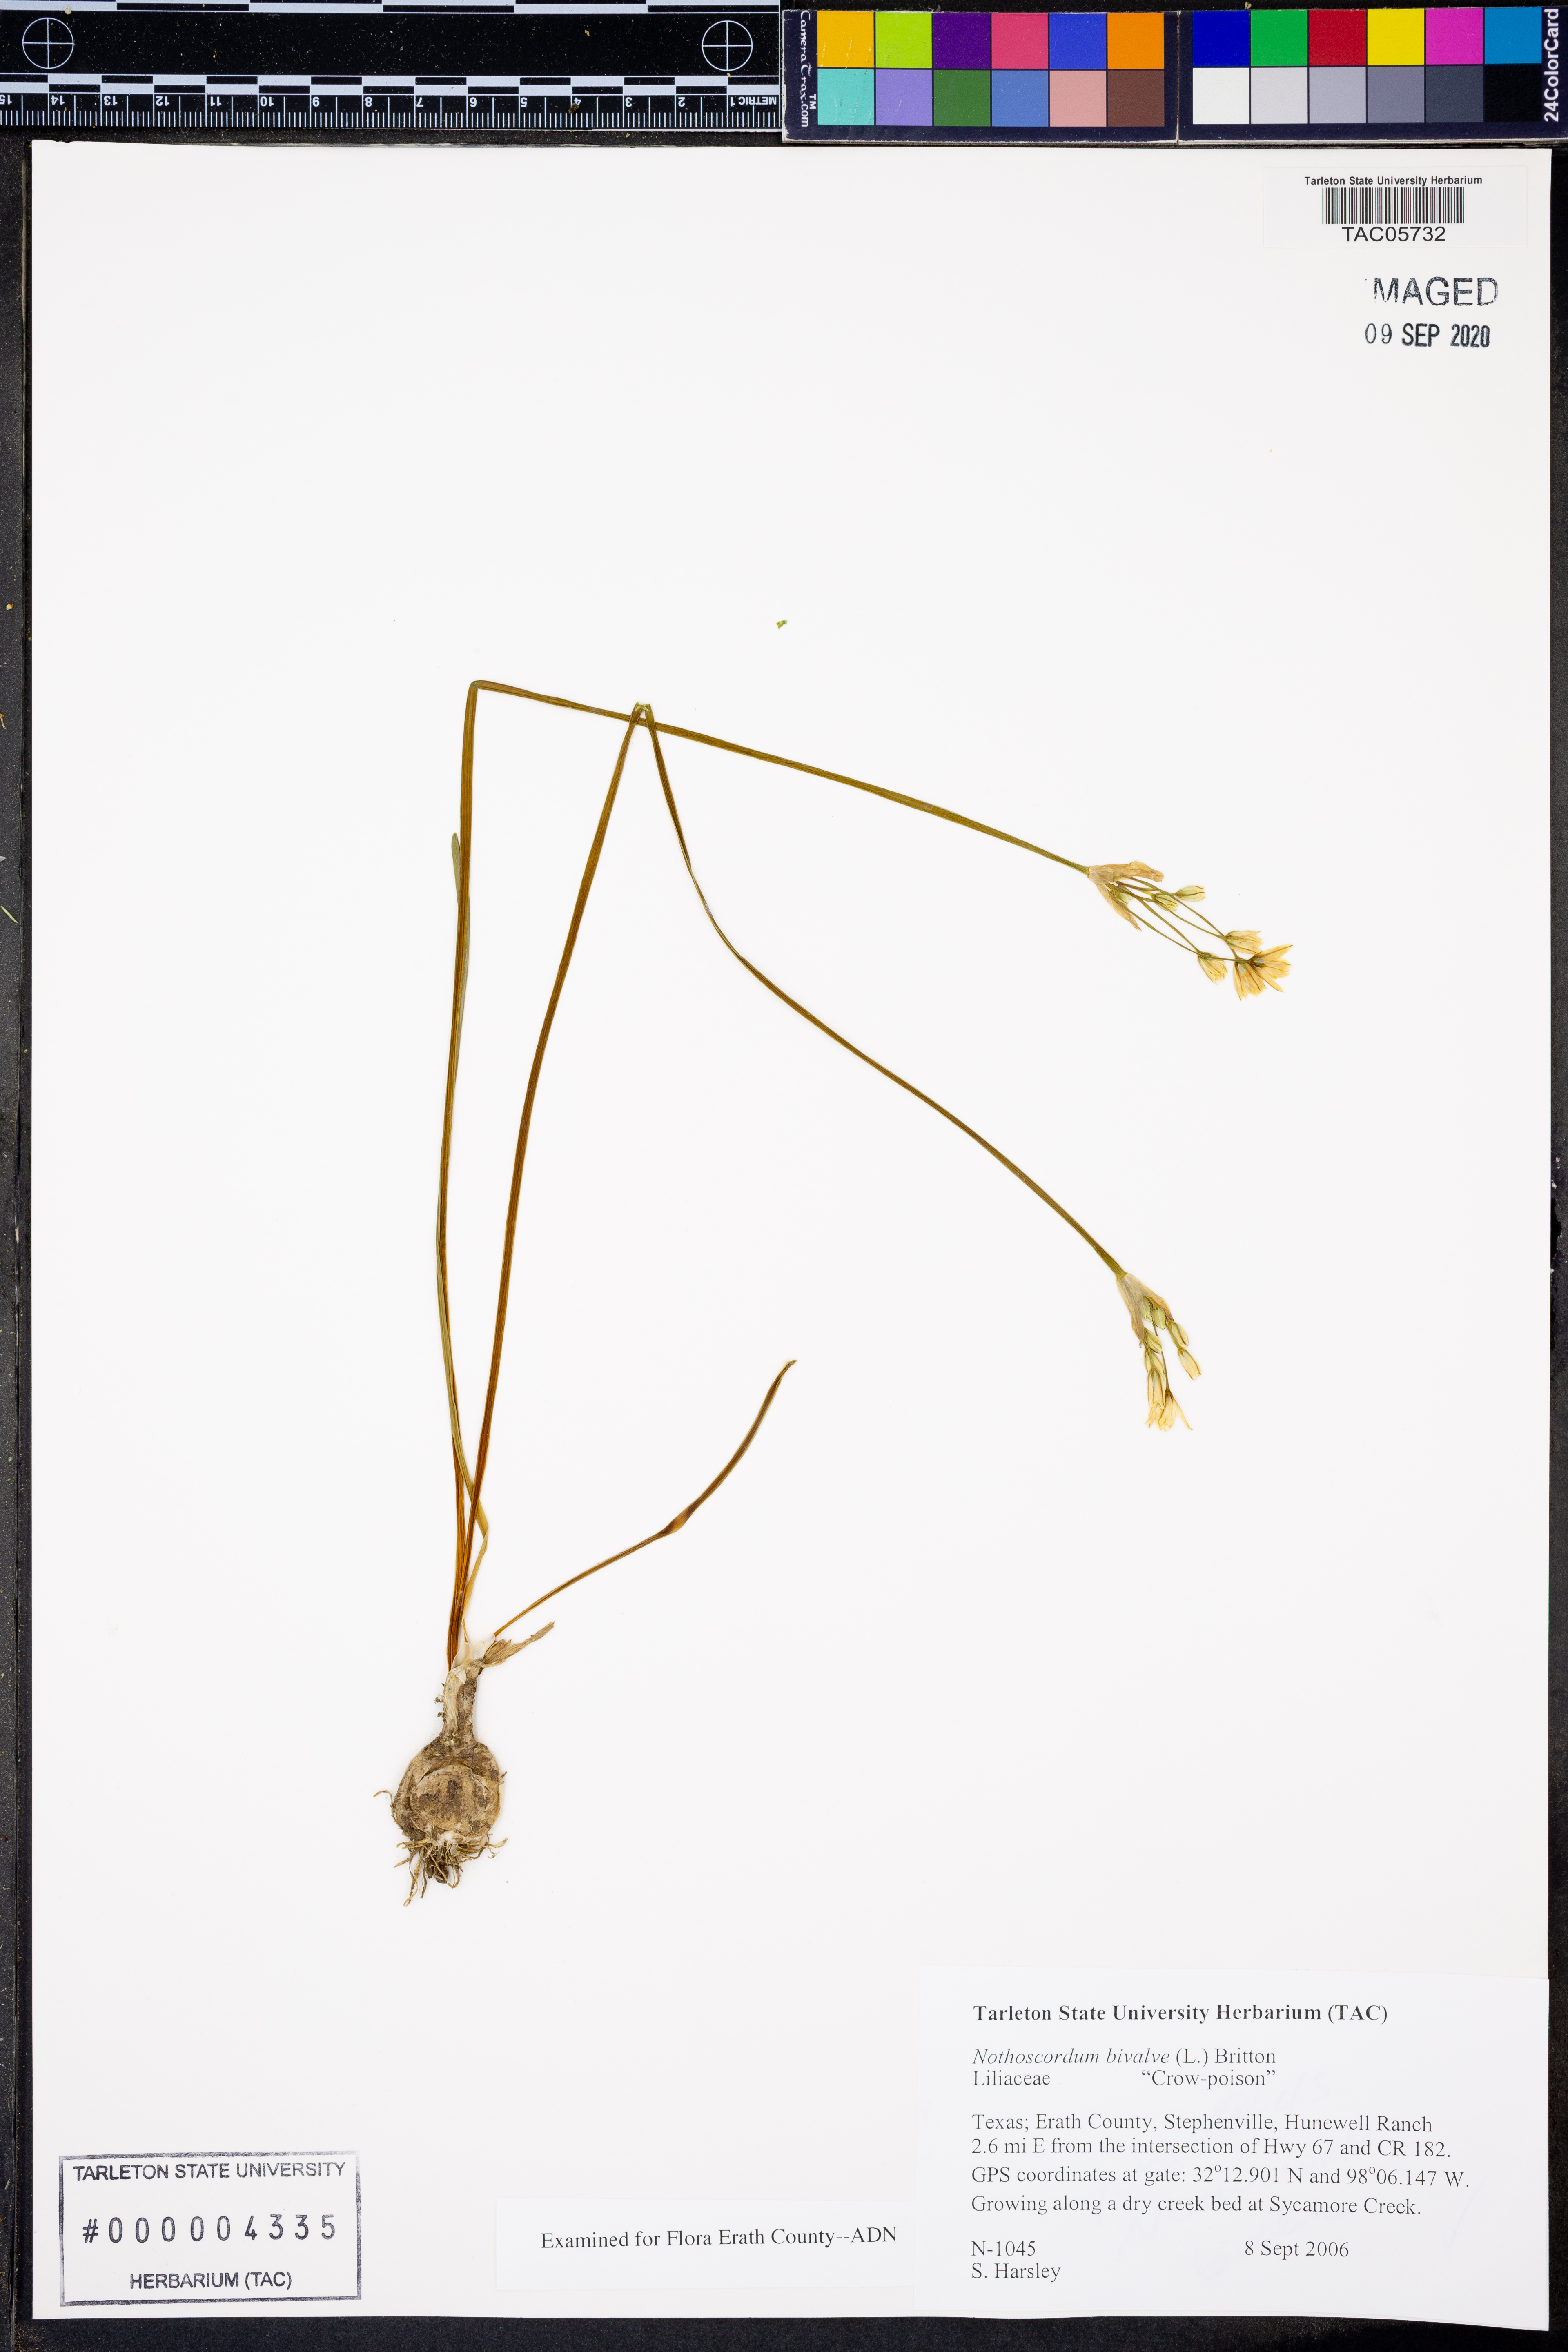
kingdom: Plantae
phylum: Tracheophyta
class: Liliopsida
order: Asparagales
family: Amaryllidaceae
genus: Nothoscordum
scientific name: Nothoscordum bivalve
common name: Crow-poison
